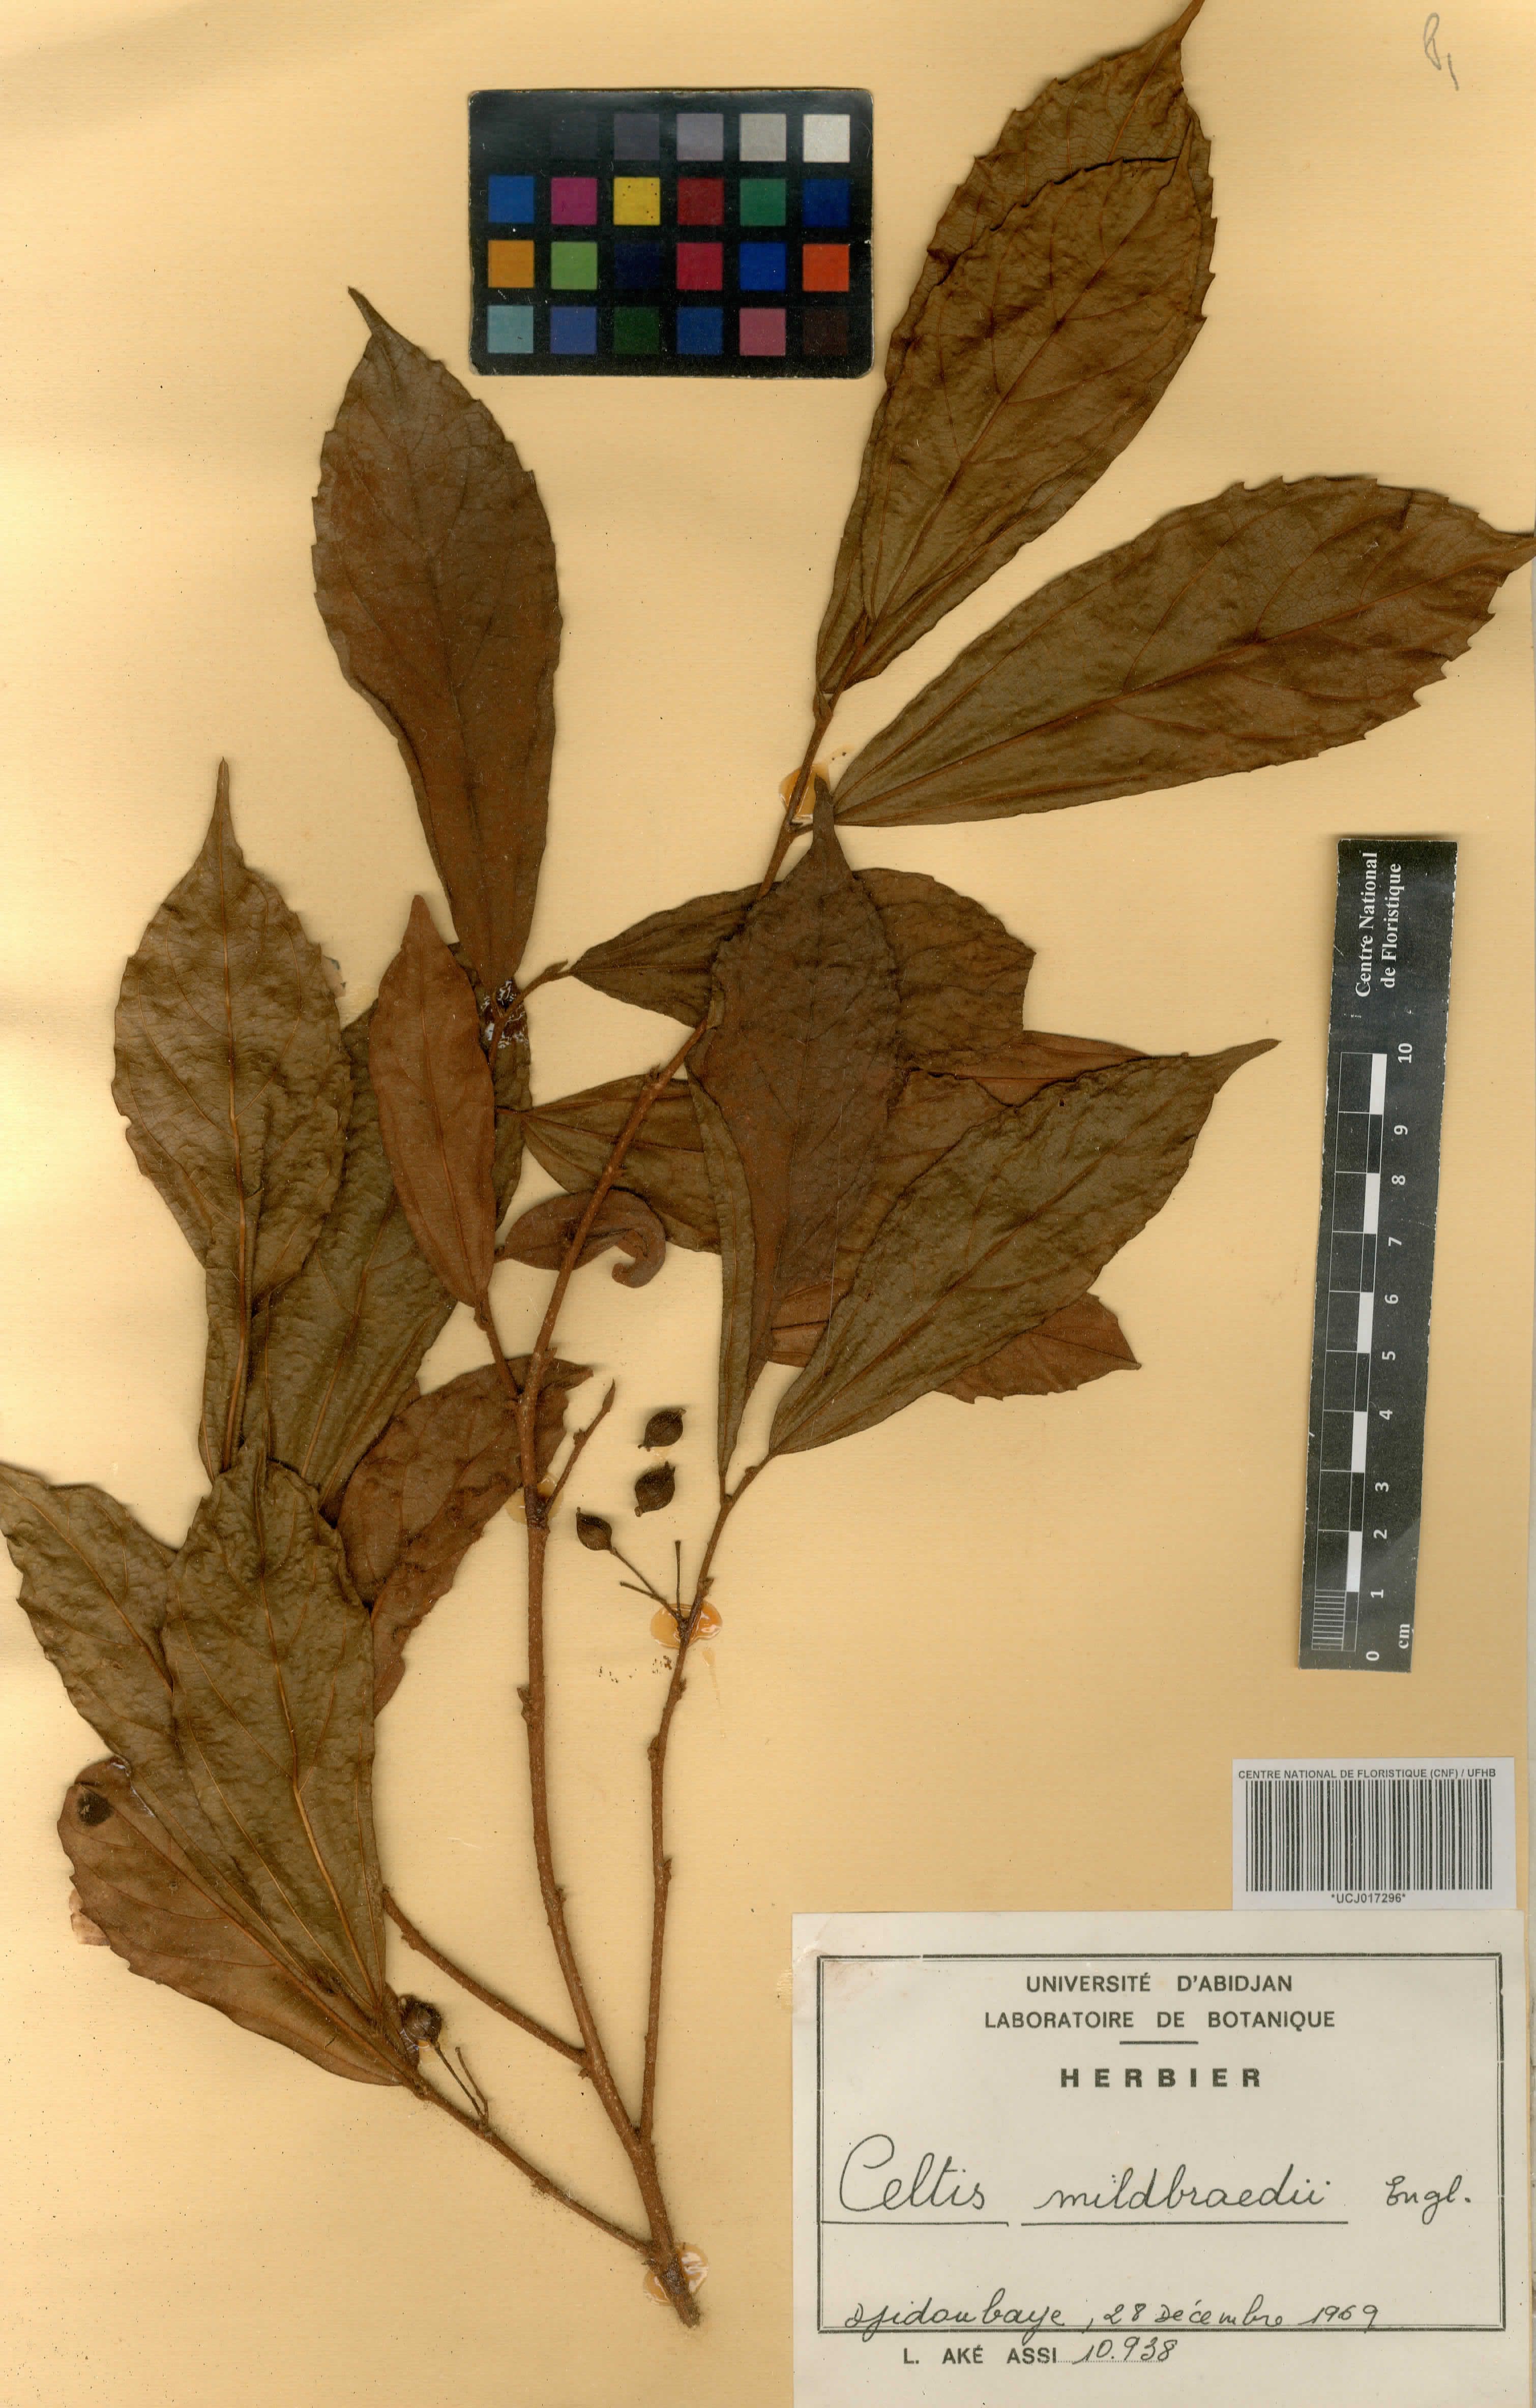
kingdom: Plantae
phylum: Tracheophyta
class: Magnoliopsida
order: Rosales
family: Cannabaceae
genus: Celtis
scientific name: Celtis mildbraedii
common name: Red-fruited stinkwood
